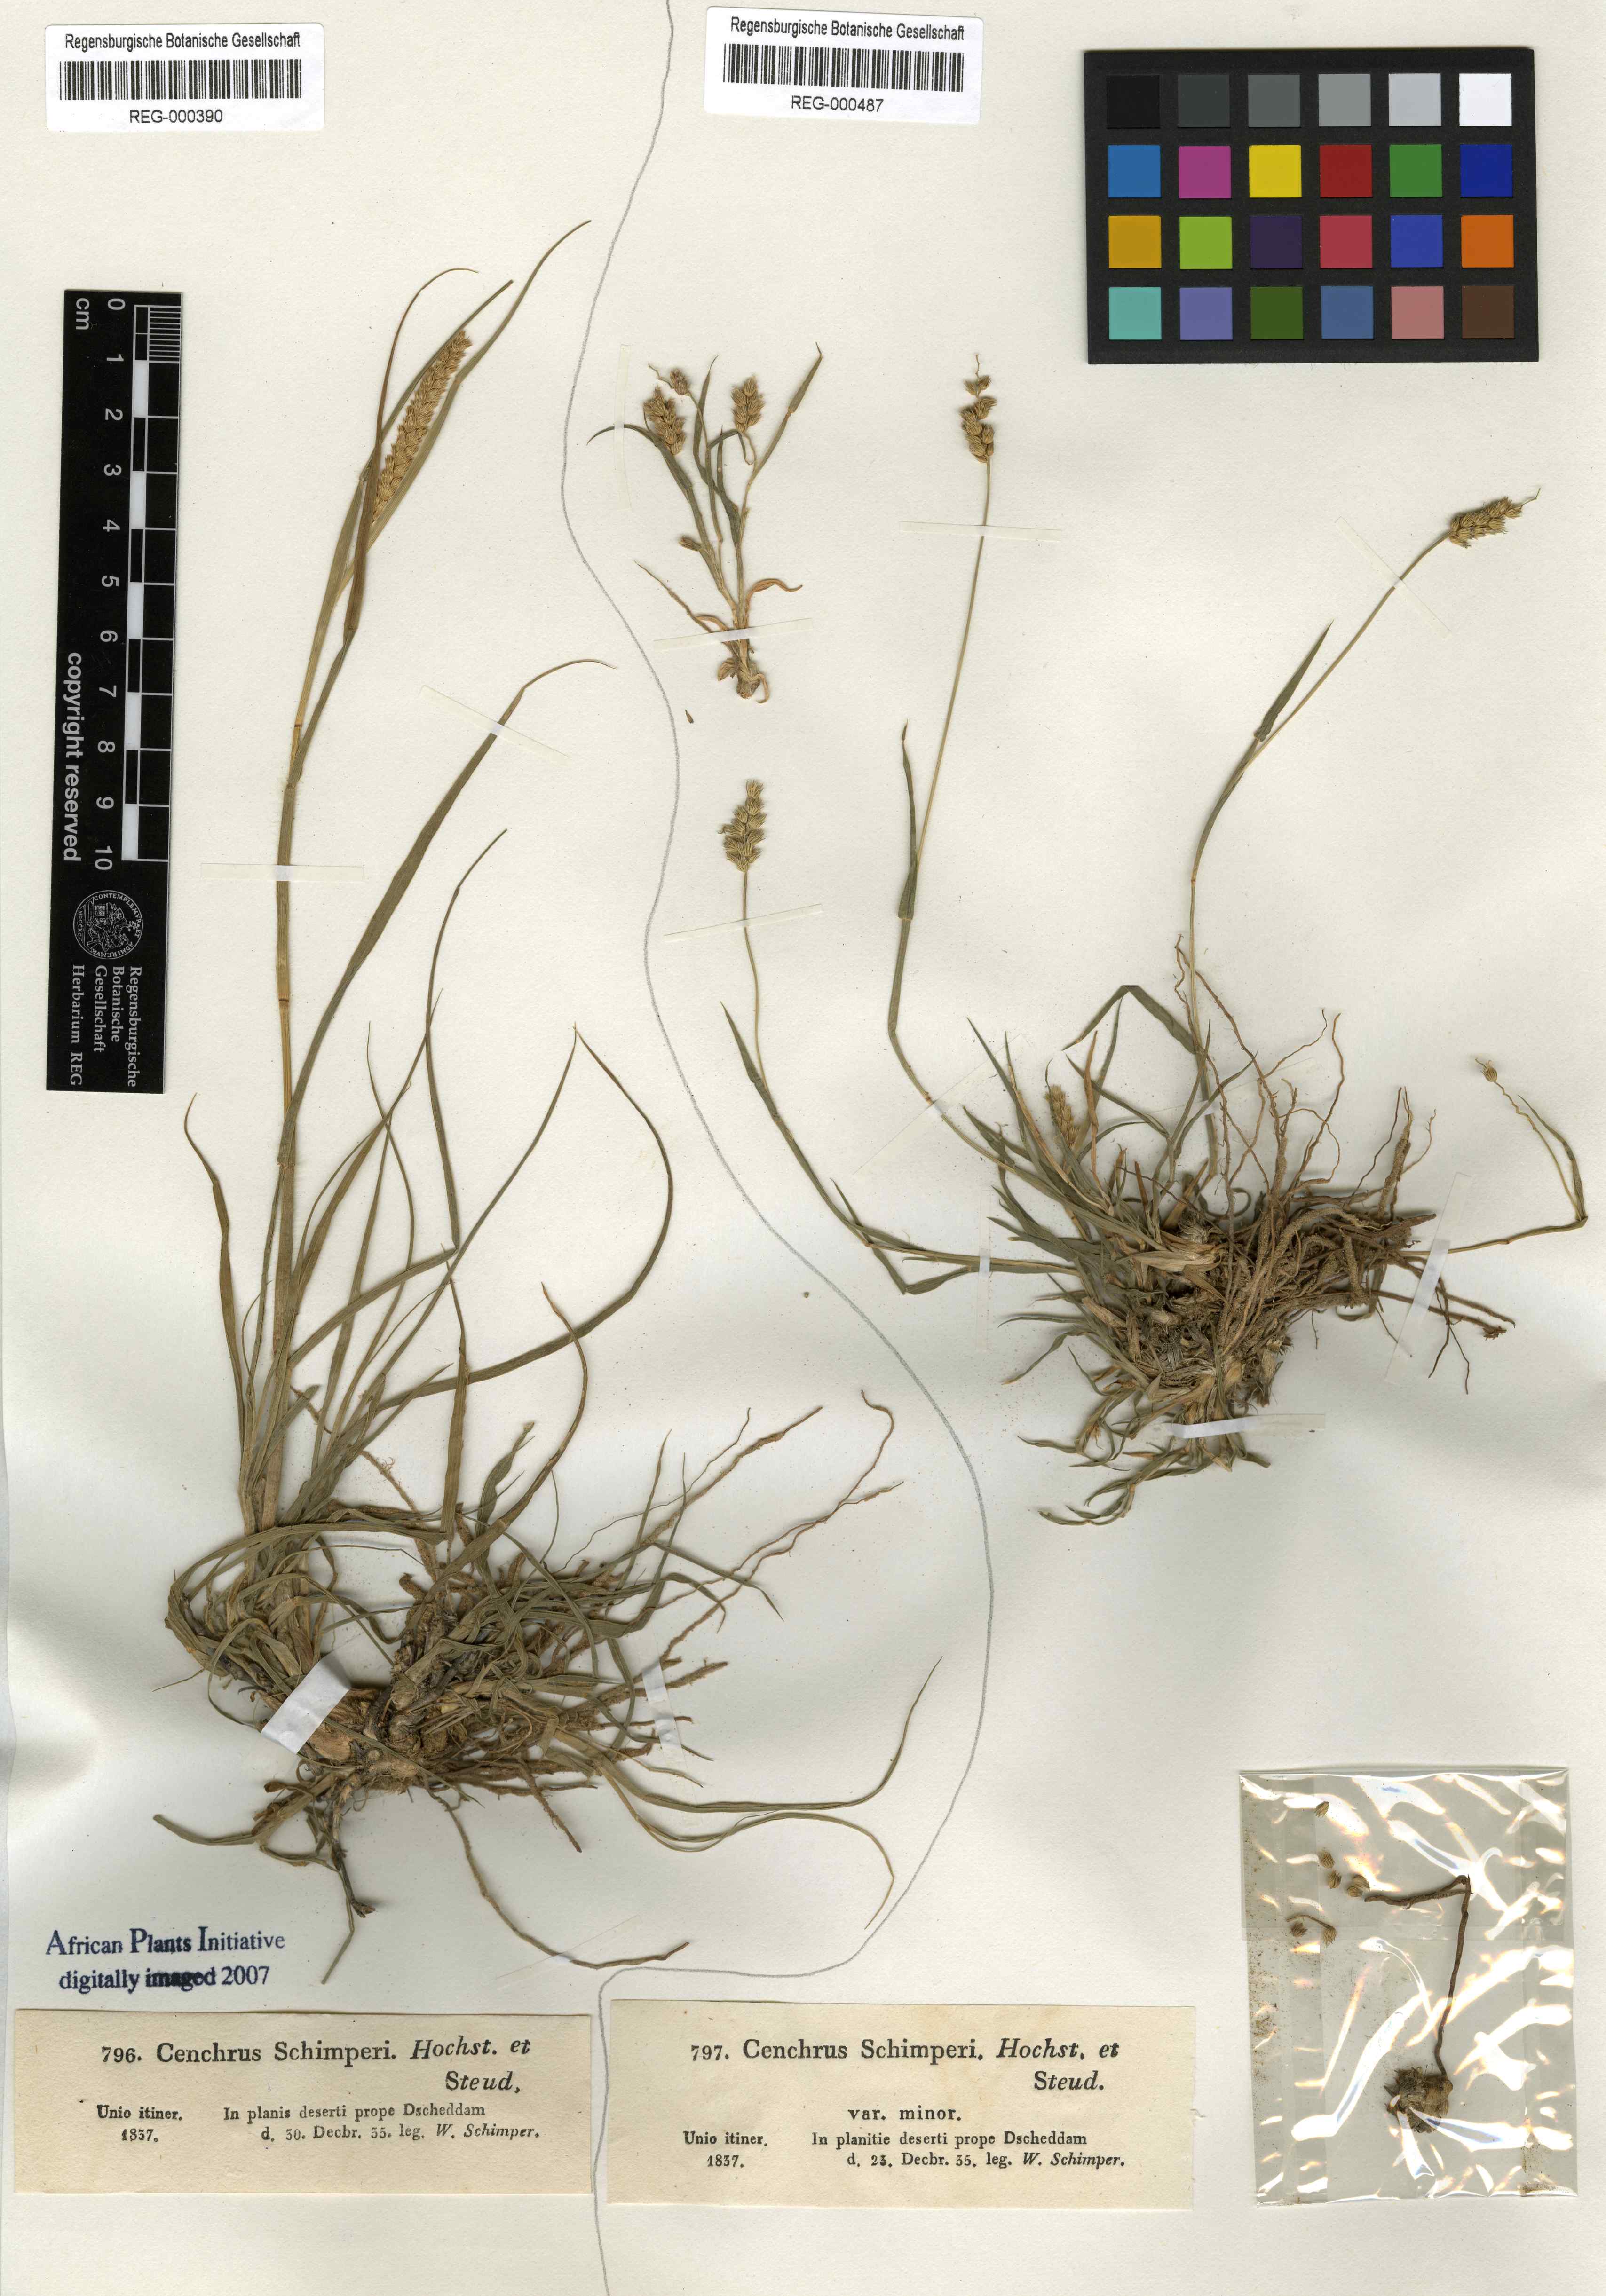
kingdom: Plantae
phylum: Tracheophyta
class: Liliopsida
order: Poales
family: Poaceae
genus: Cenchrus
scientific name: Cenchrus setigerus
